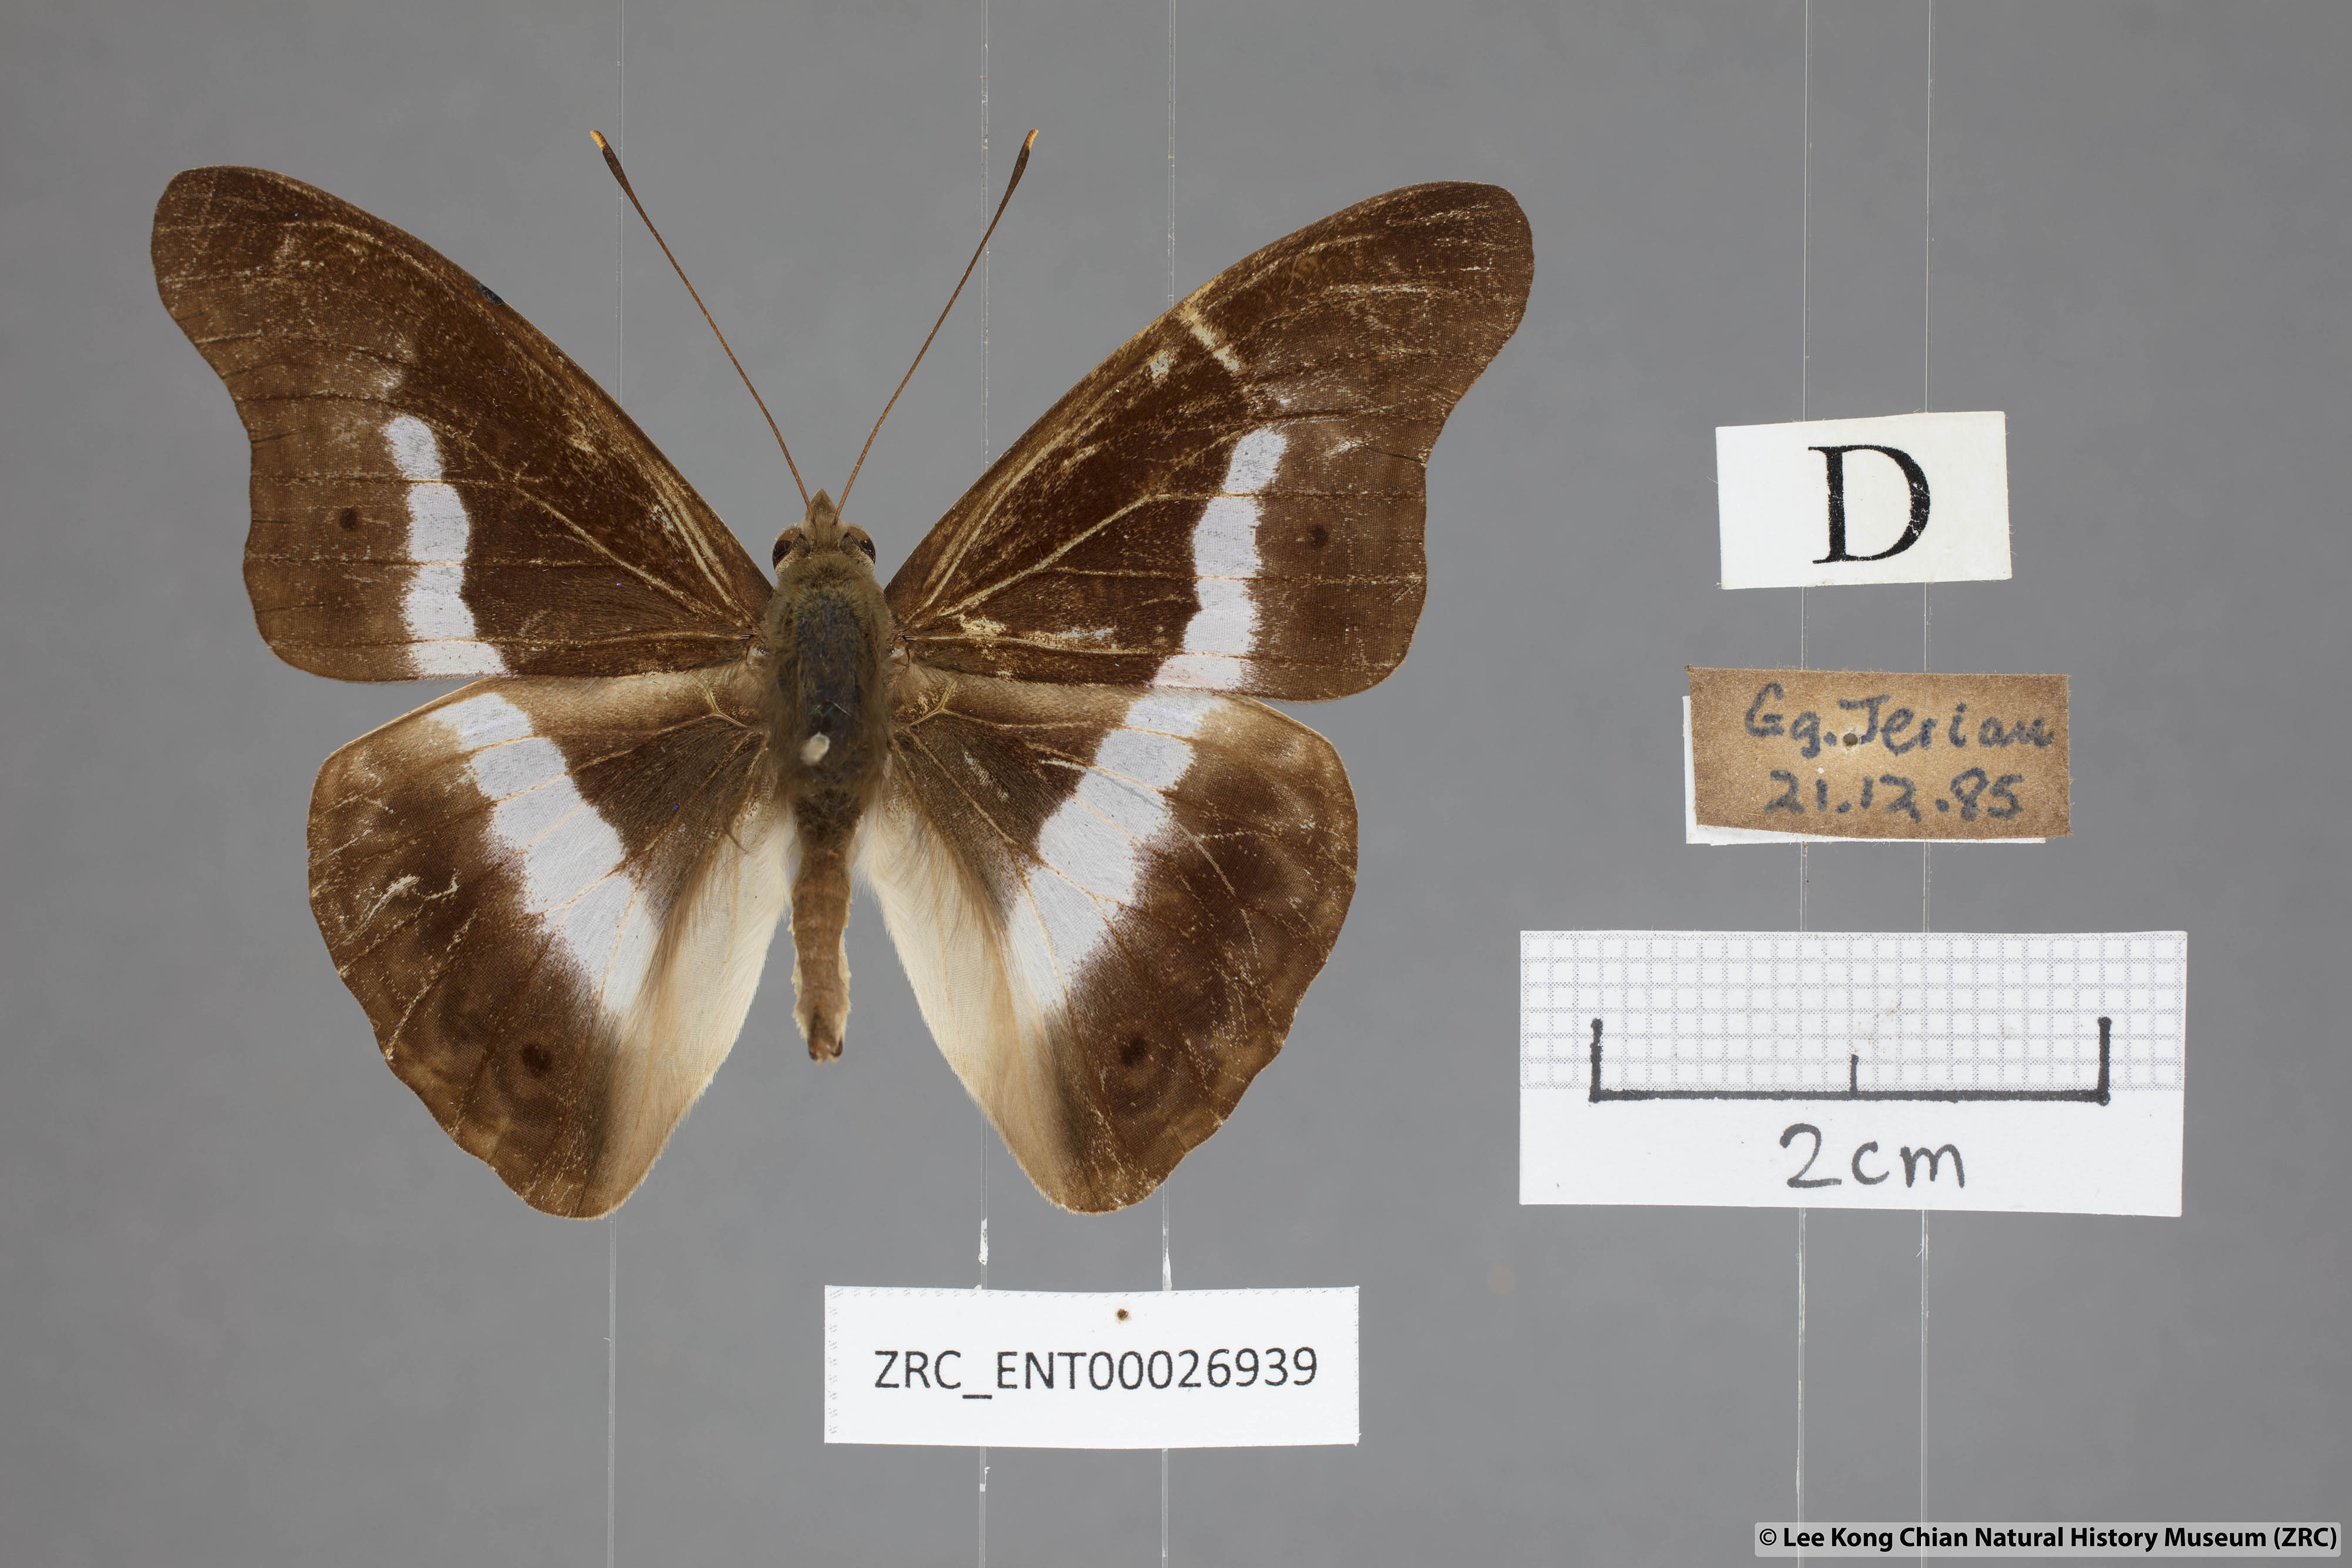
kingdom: Animalia
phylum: Arthropoda
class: Insecta
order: Lepidoptera
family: Nymphalidae
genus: Eulaceura
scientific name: Eulaceura osteria
